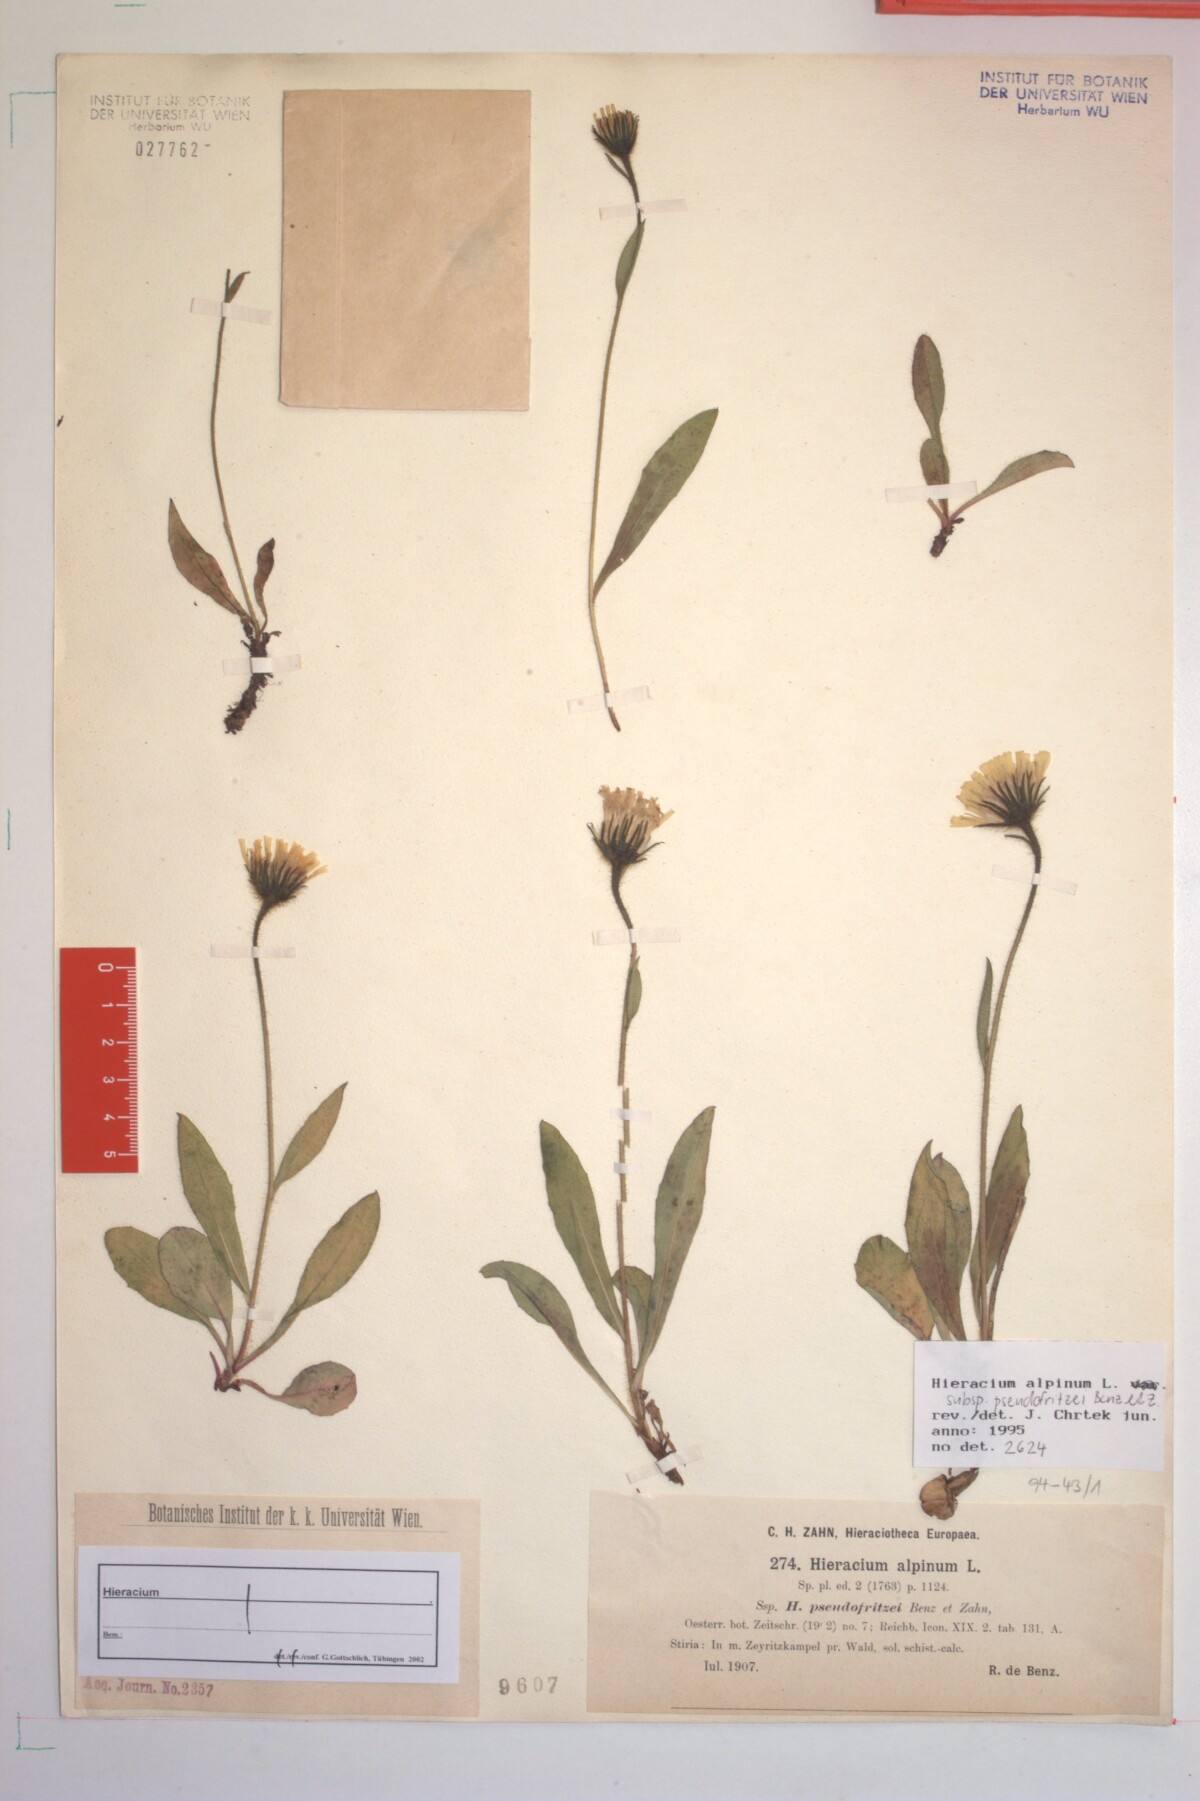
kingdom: Plantae
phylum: Tracheophyta
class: Magnoliopsida
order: Asterales
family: Asteraceae
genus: Hieracium
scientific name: Hieracium pseudofritzei
